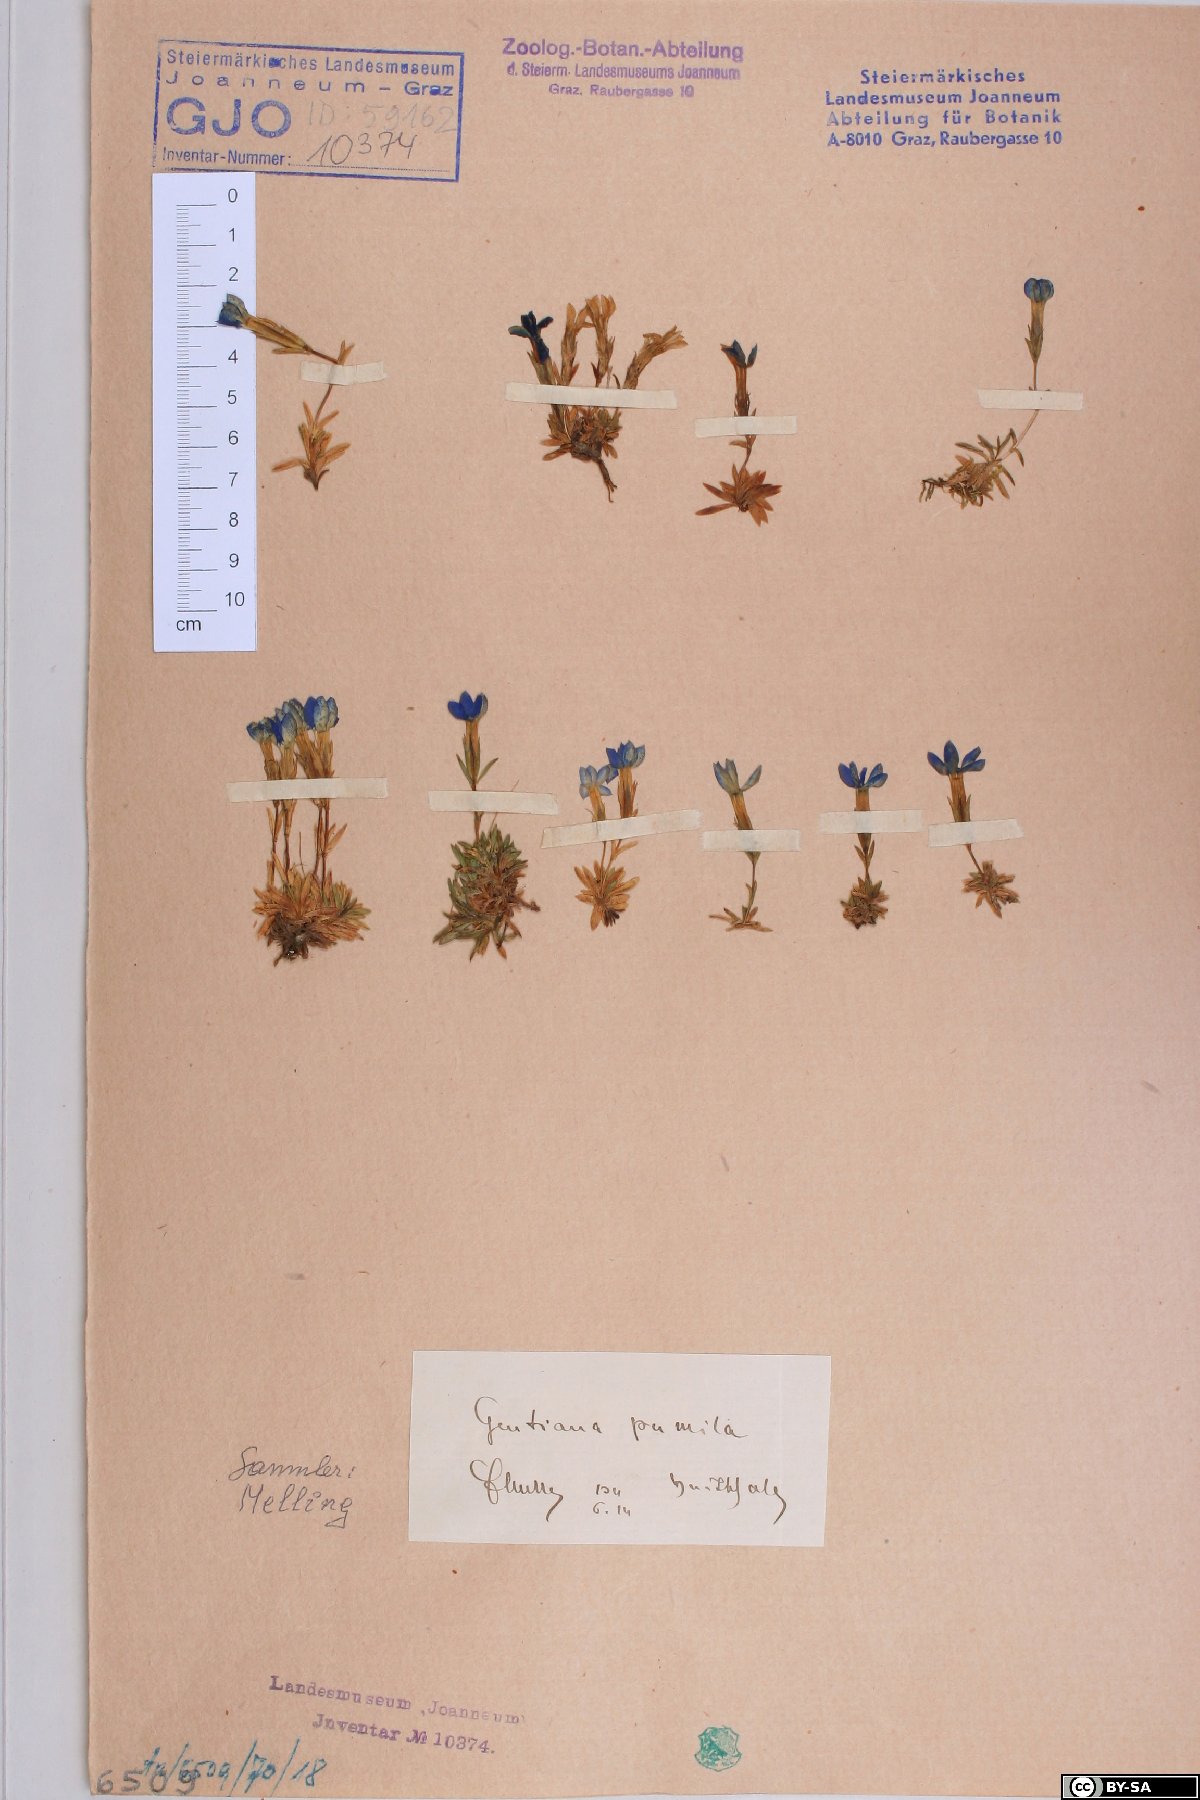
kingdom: Plantae
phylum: Tracheophyta
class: Magnoliopsida
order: Gentianales
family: Gentianaceae
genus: Gentiana
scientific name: Gentiana pumila
